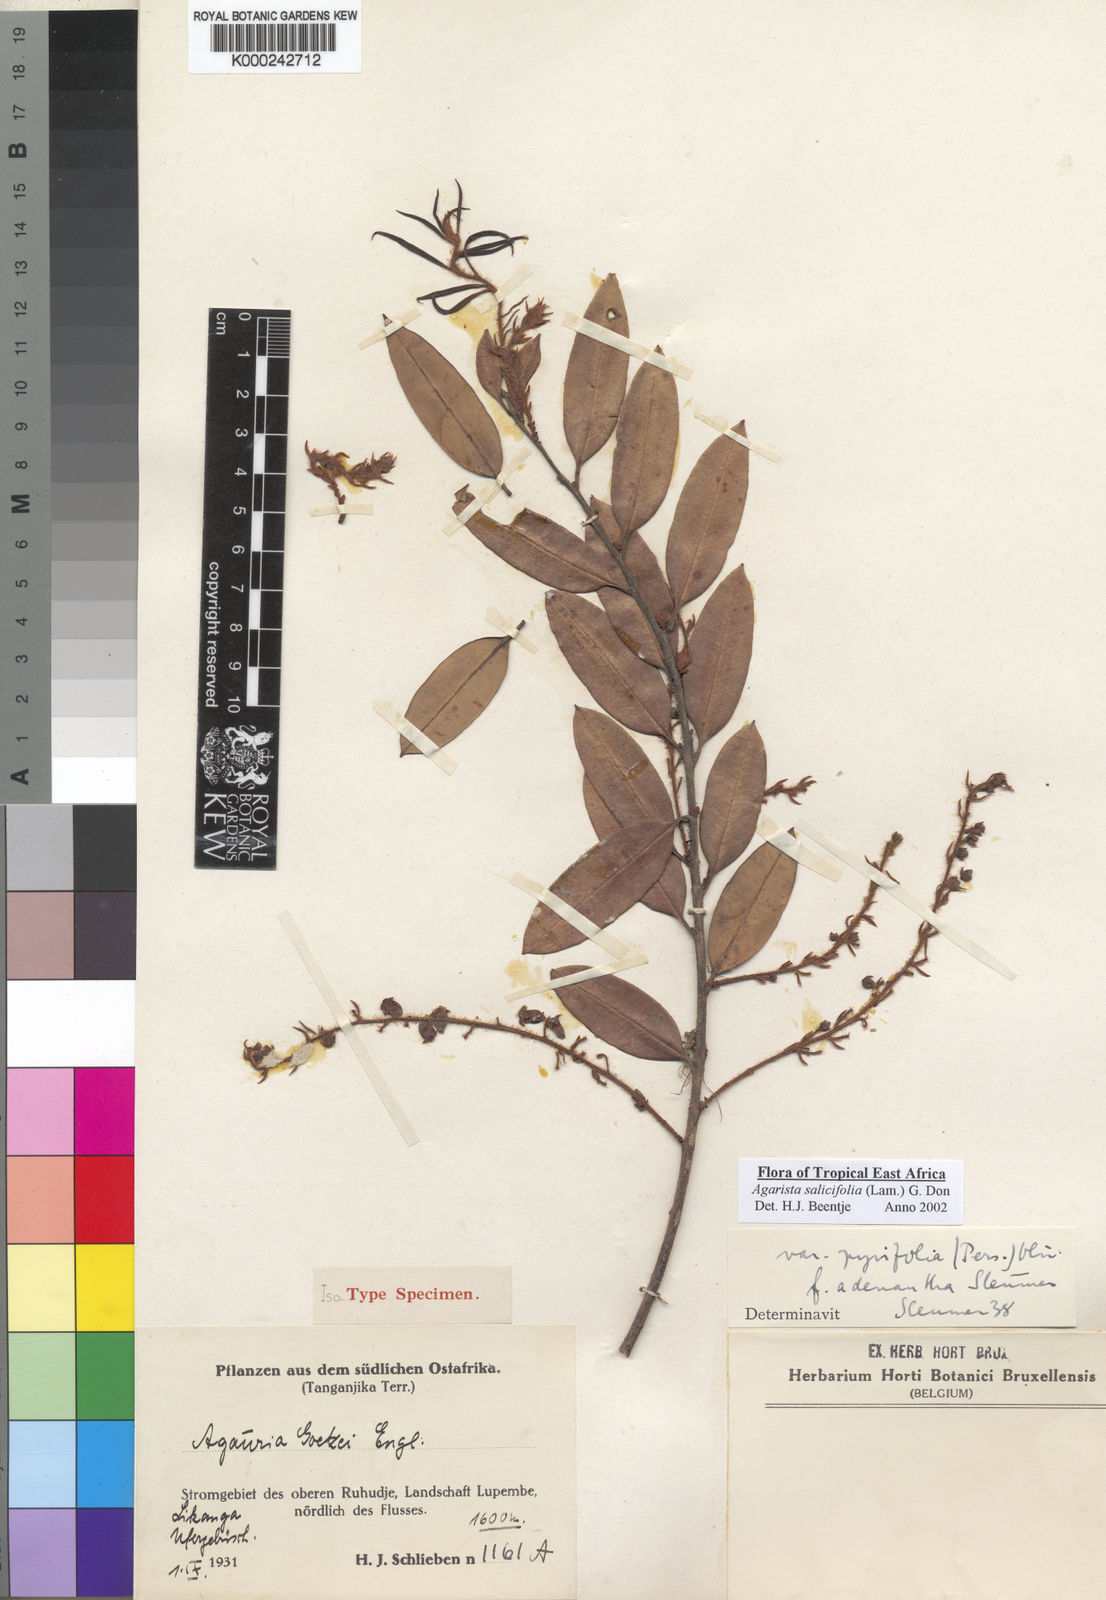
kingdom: Plantae
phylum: Tracheophyta
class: Magnoliopsida
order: Ericales
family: Ericaceae
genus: Agarista
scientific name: Agarista salicifolia
